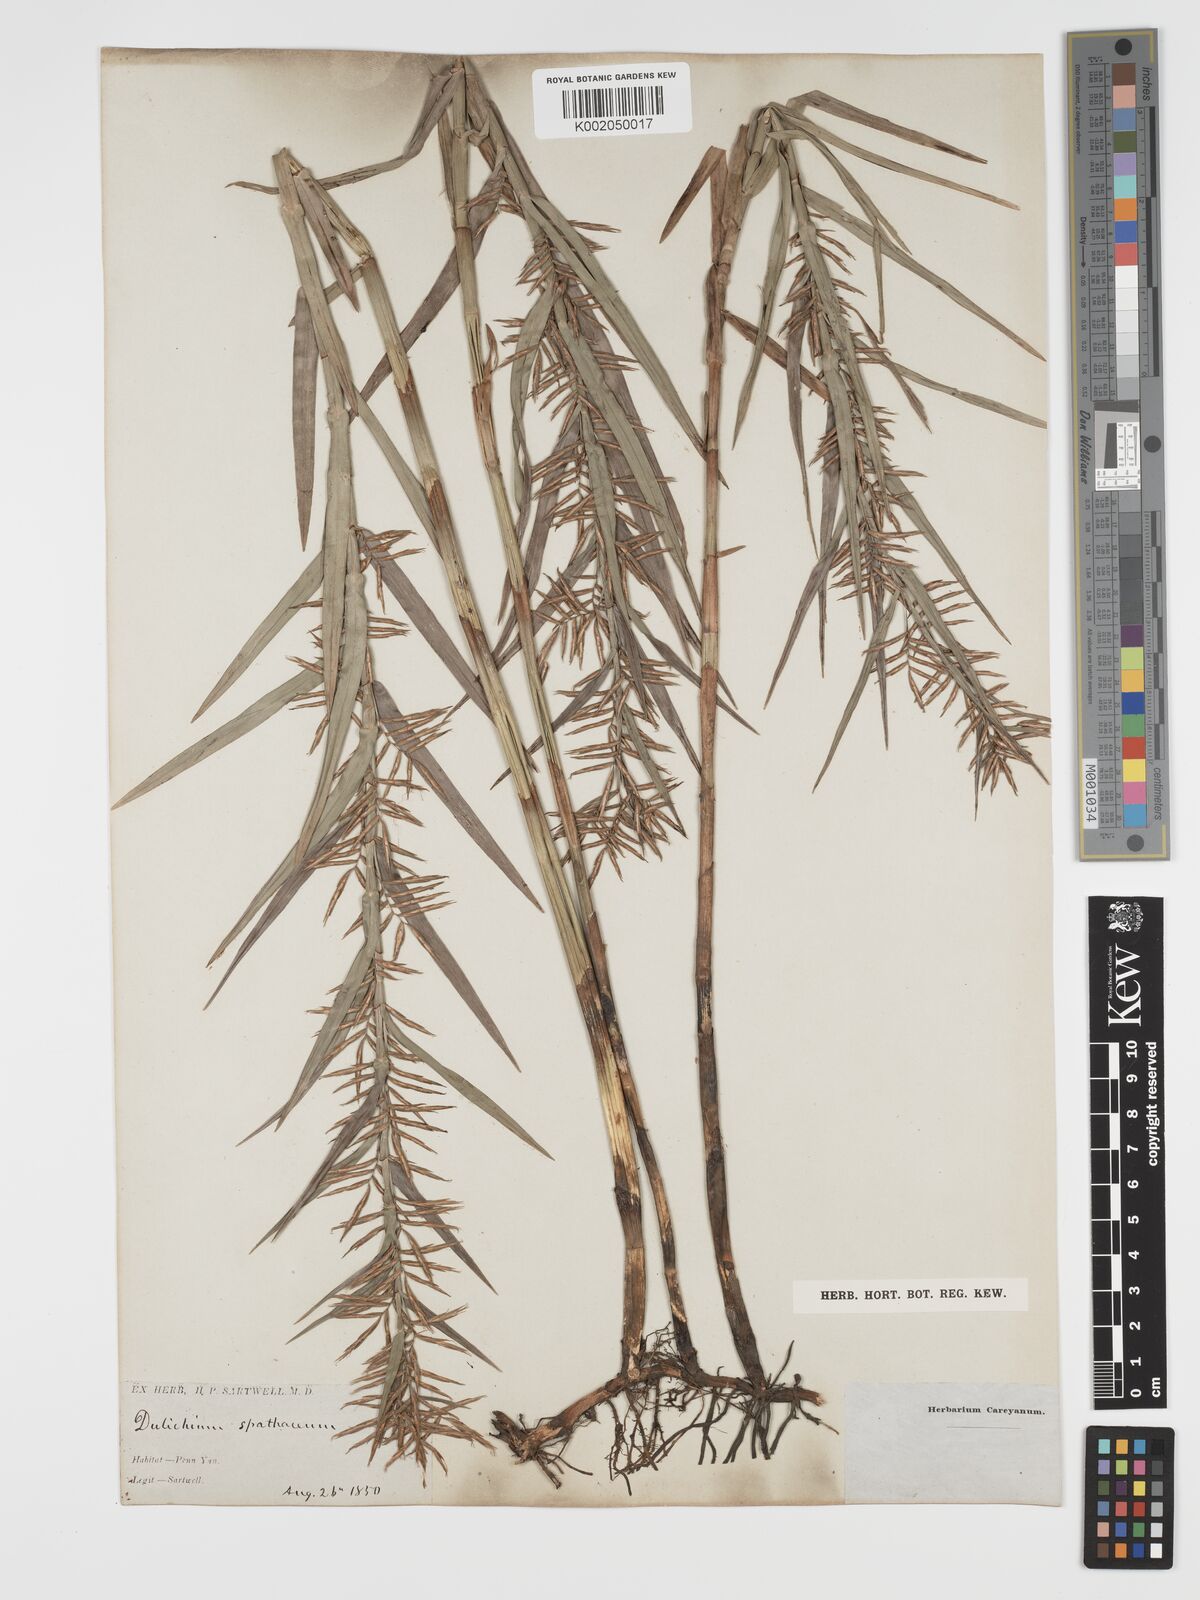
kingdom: Plantae
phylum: Tracheophyta
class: Liliopsida
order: Poales
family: Cyperaceae
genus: Dulichium
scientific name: Dulichium arundinaceum
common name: Three-way sedge
